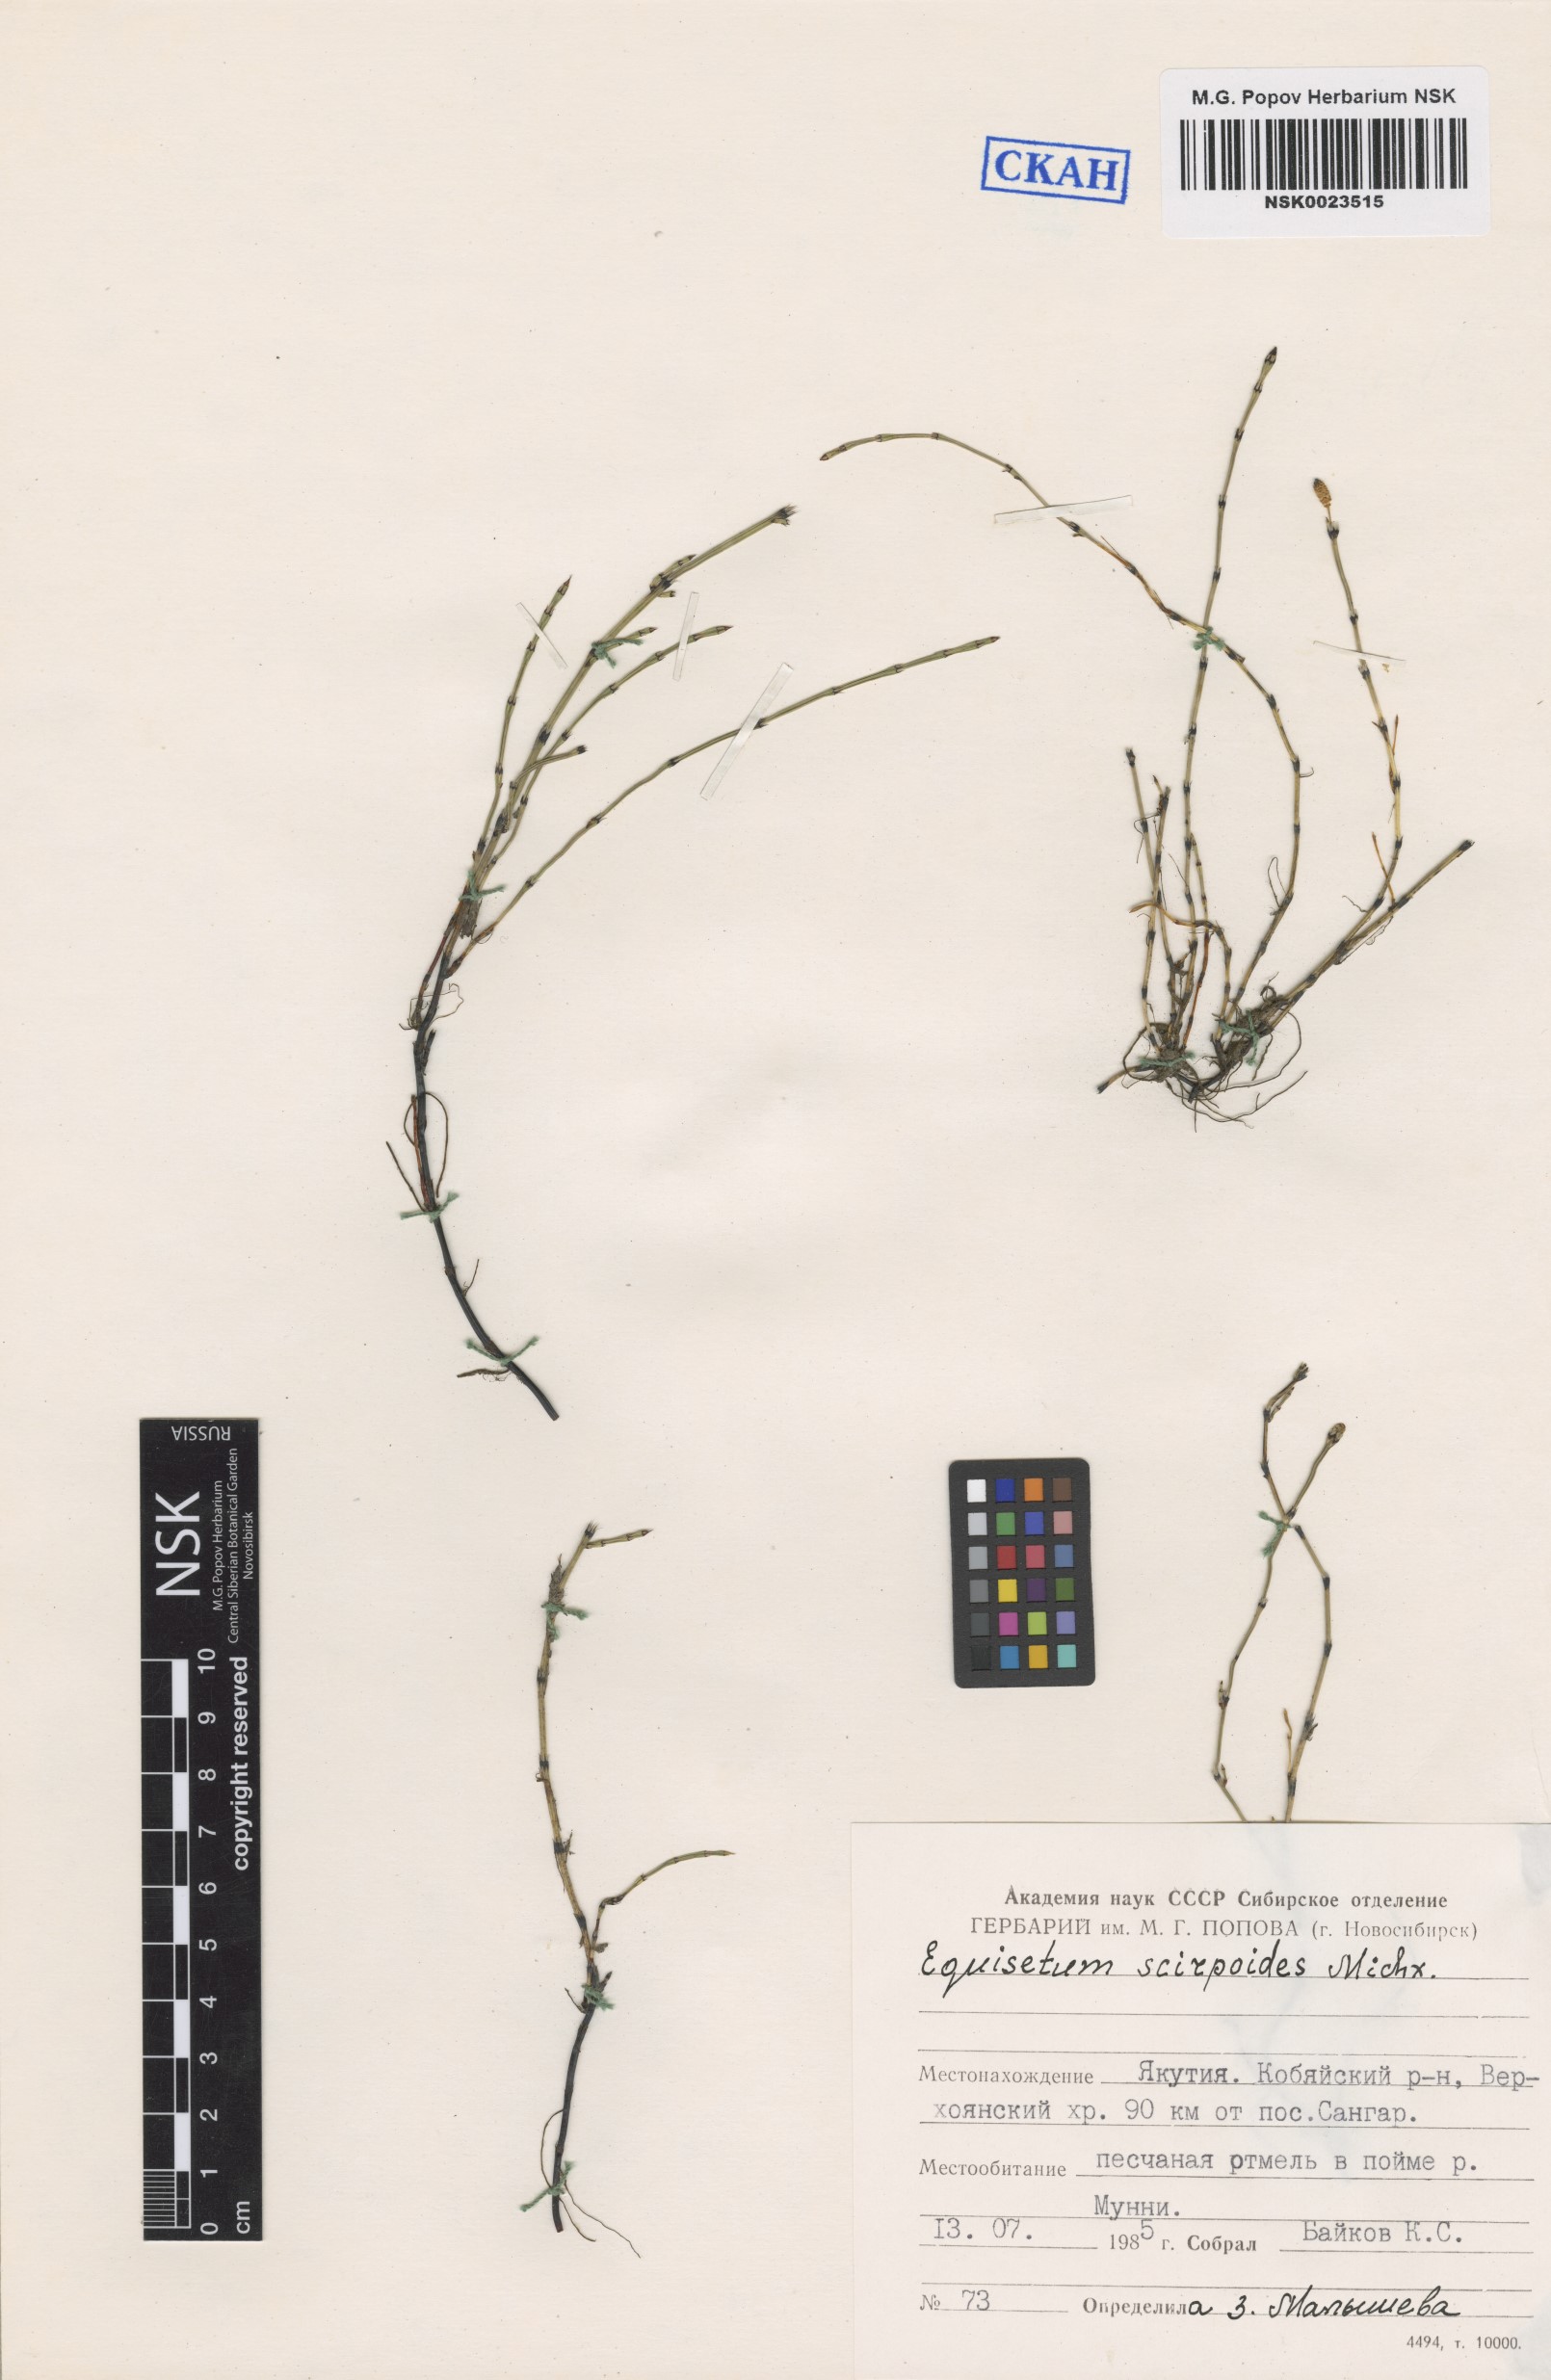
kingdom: Plantae
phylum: Tracheophyta
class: Polypodiopsida
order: Equisetales
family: Equisetaceae
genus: Equisetum
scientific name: Equisetum scirpoides
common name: Delicate horsetail
